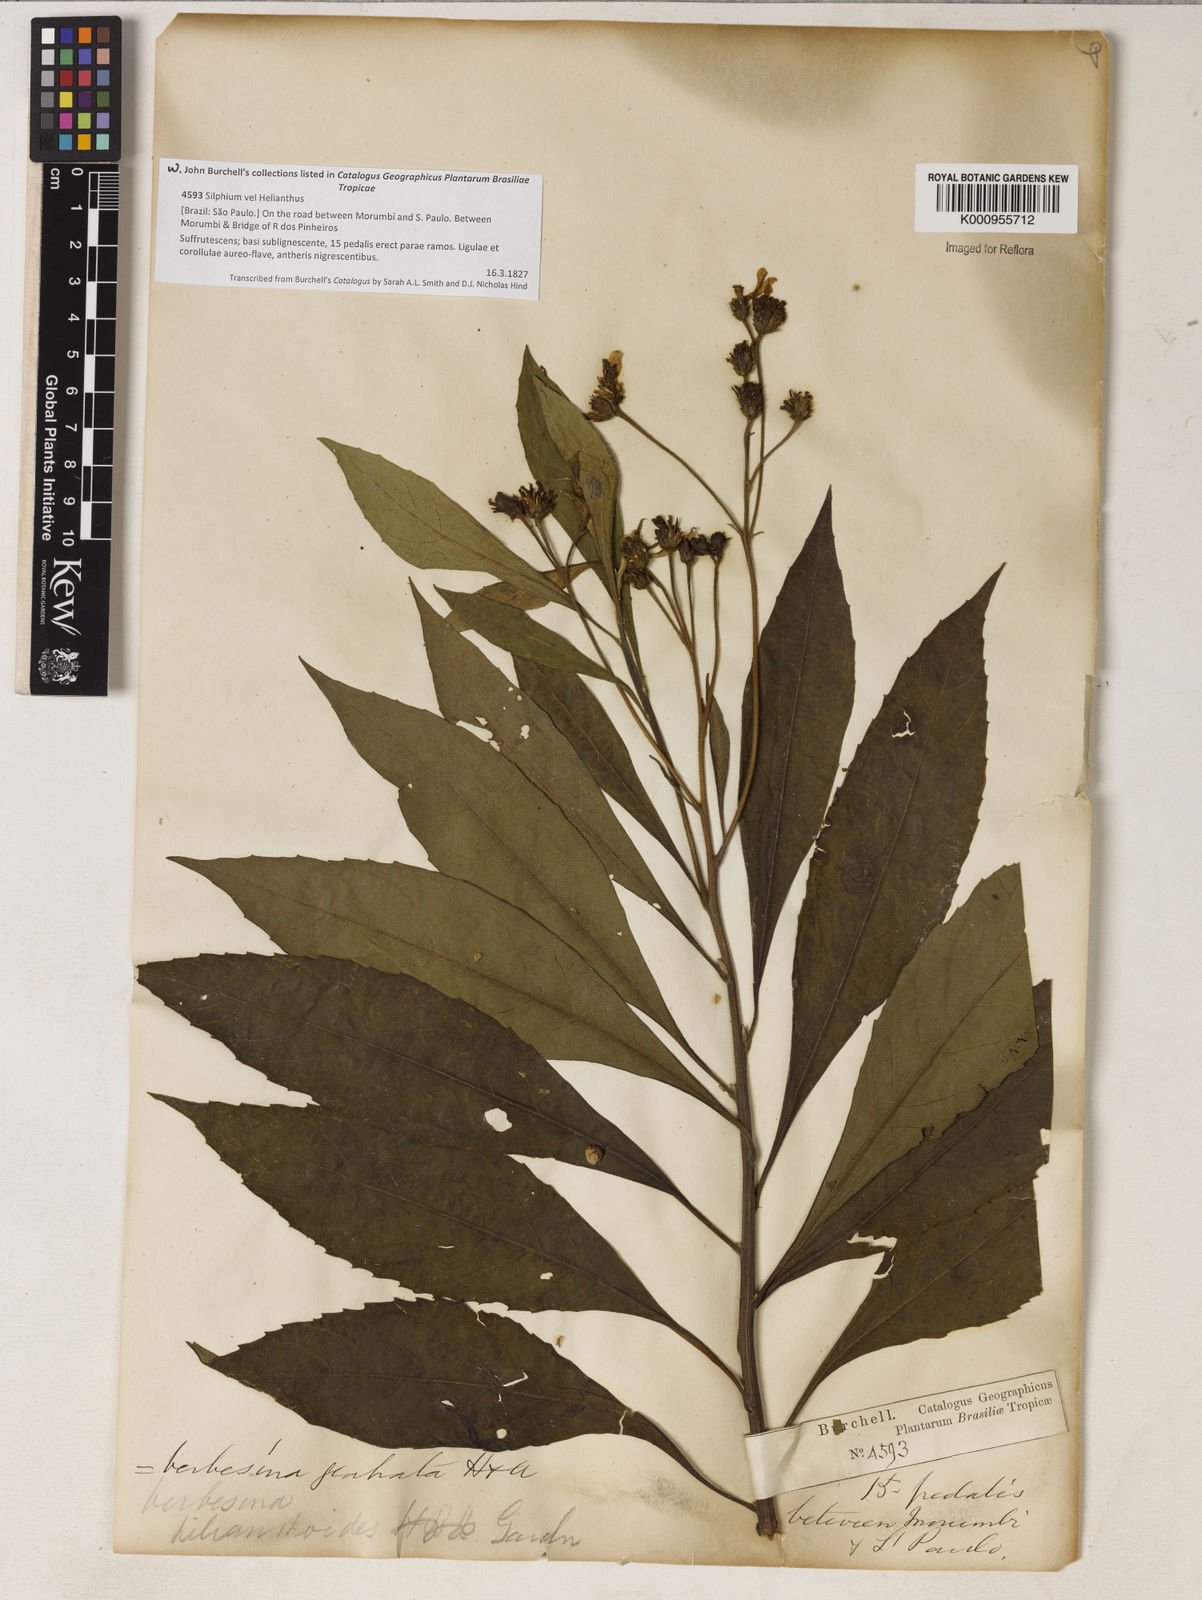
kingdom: Plantae
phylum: Tracheophyta
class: Magnoliopsida
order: Asterales
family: Asteraceae
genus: Verbesina
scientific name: Verbesina glabrata
